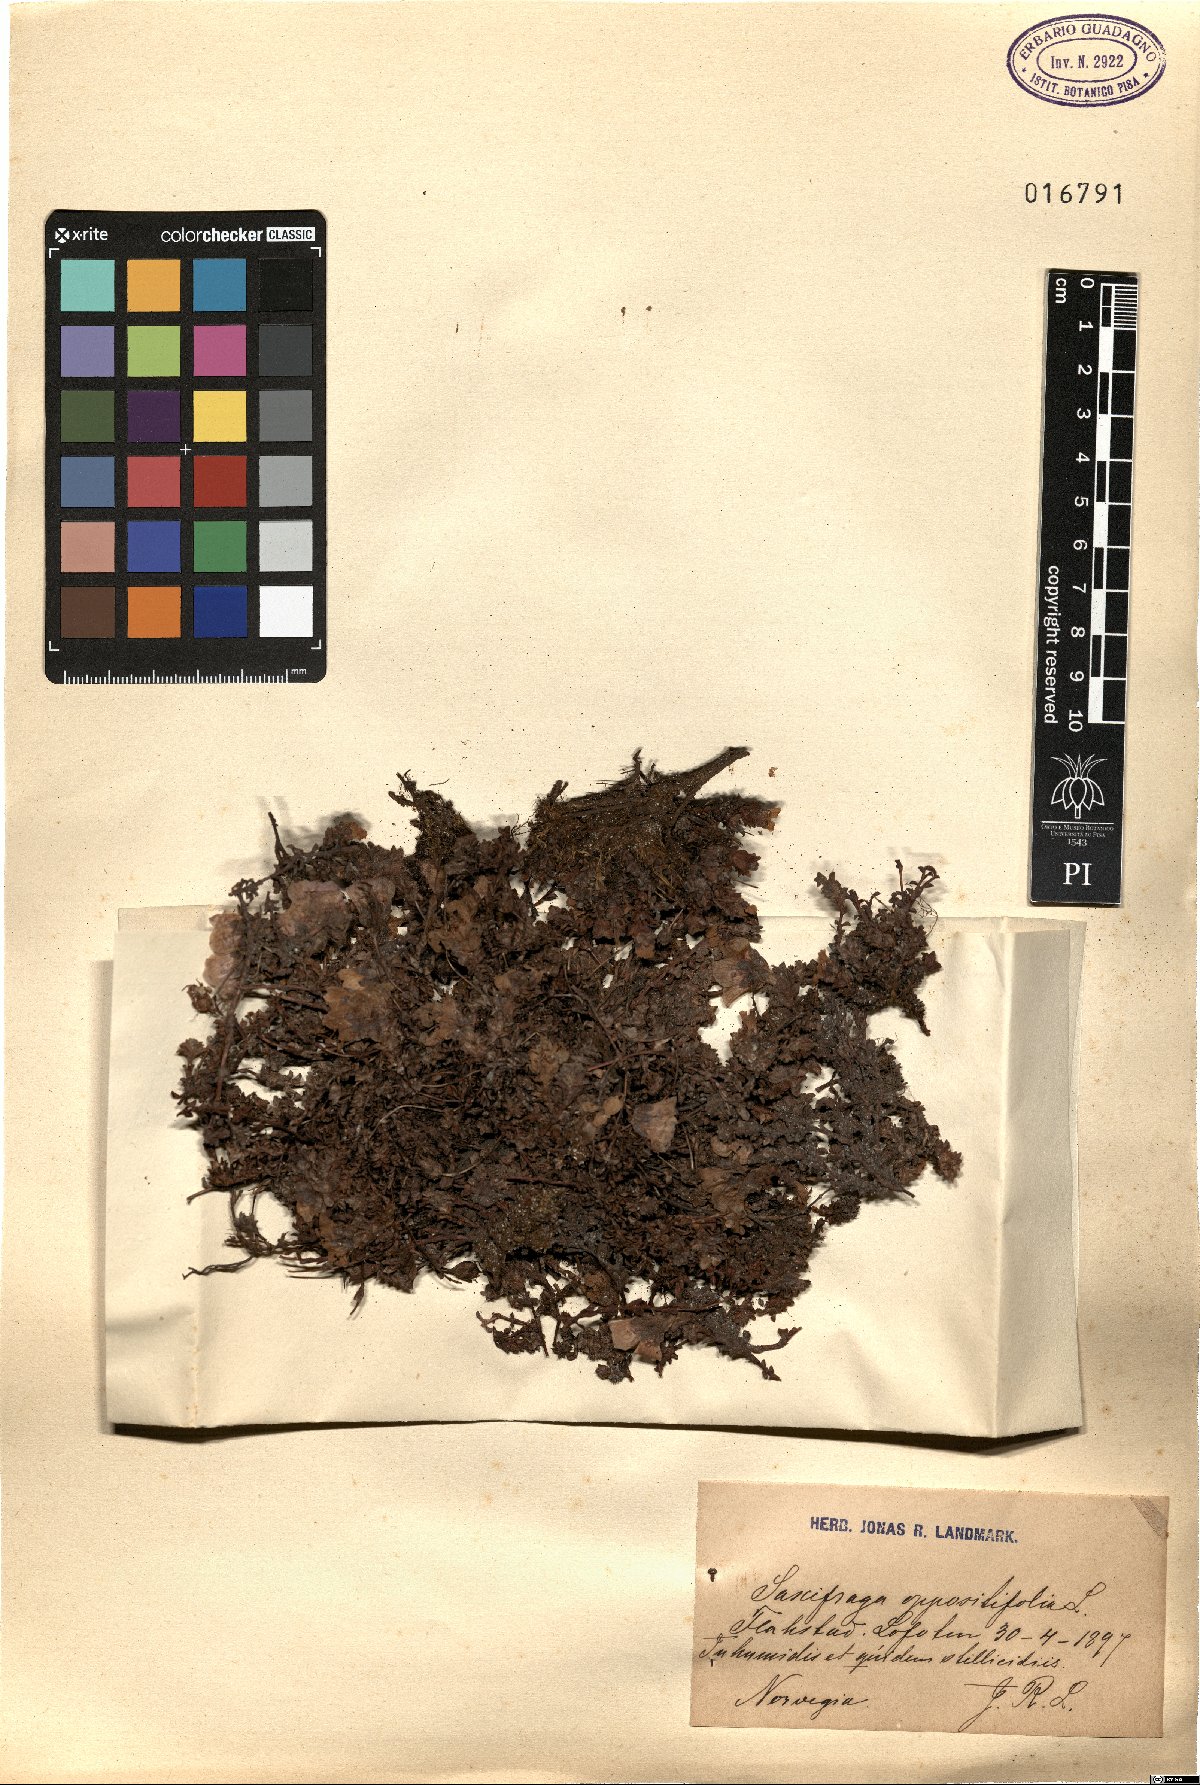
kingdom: Plantae
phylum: Tracheophyta
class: Magnoliopsida
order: Saxifragales
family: Saxifragaceae
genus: Saxifraga
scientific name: Saxifraga oppositifolia
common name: Purple saxifrage
